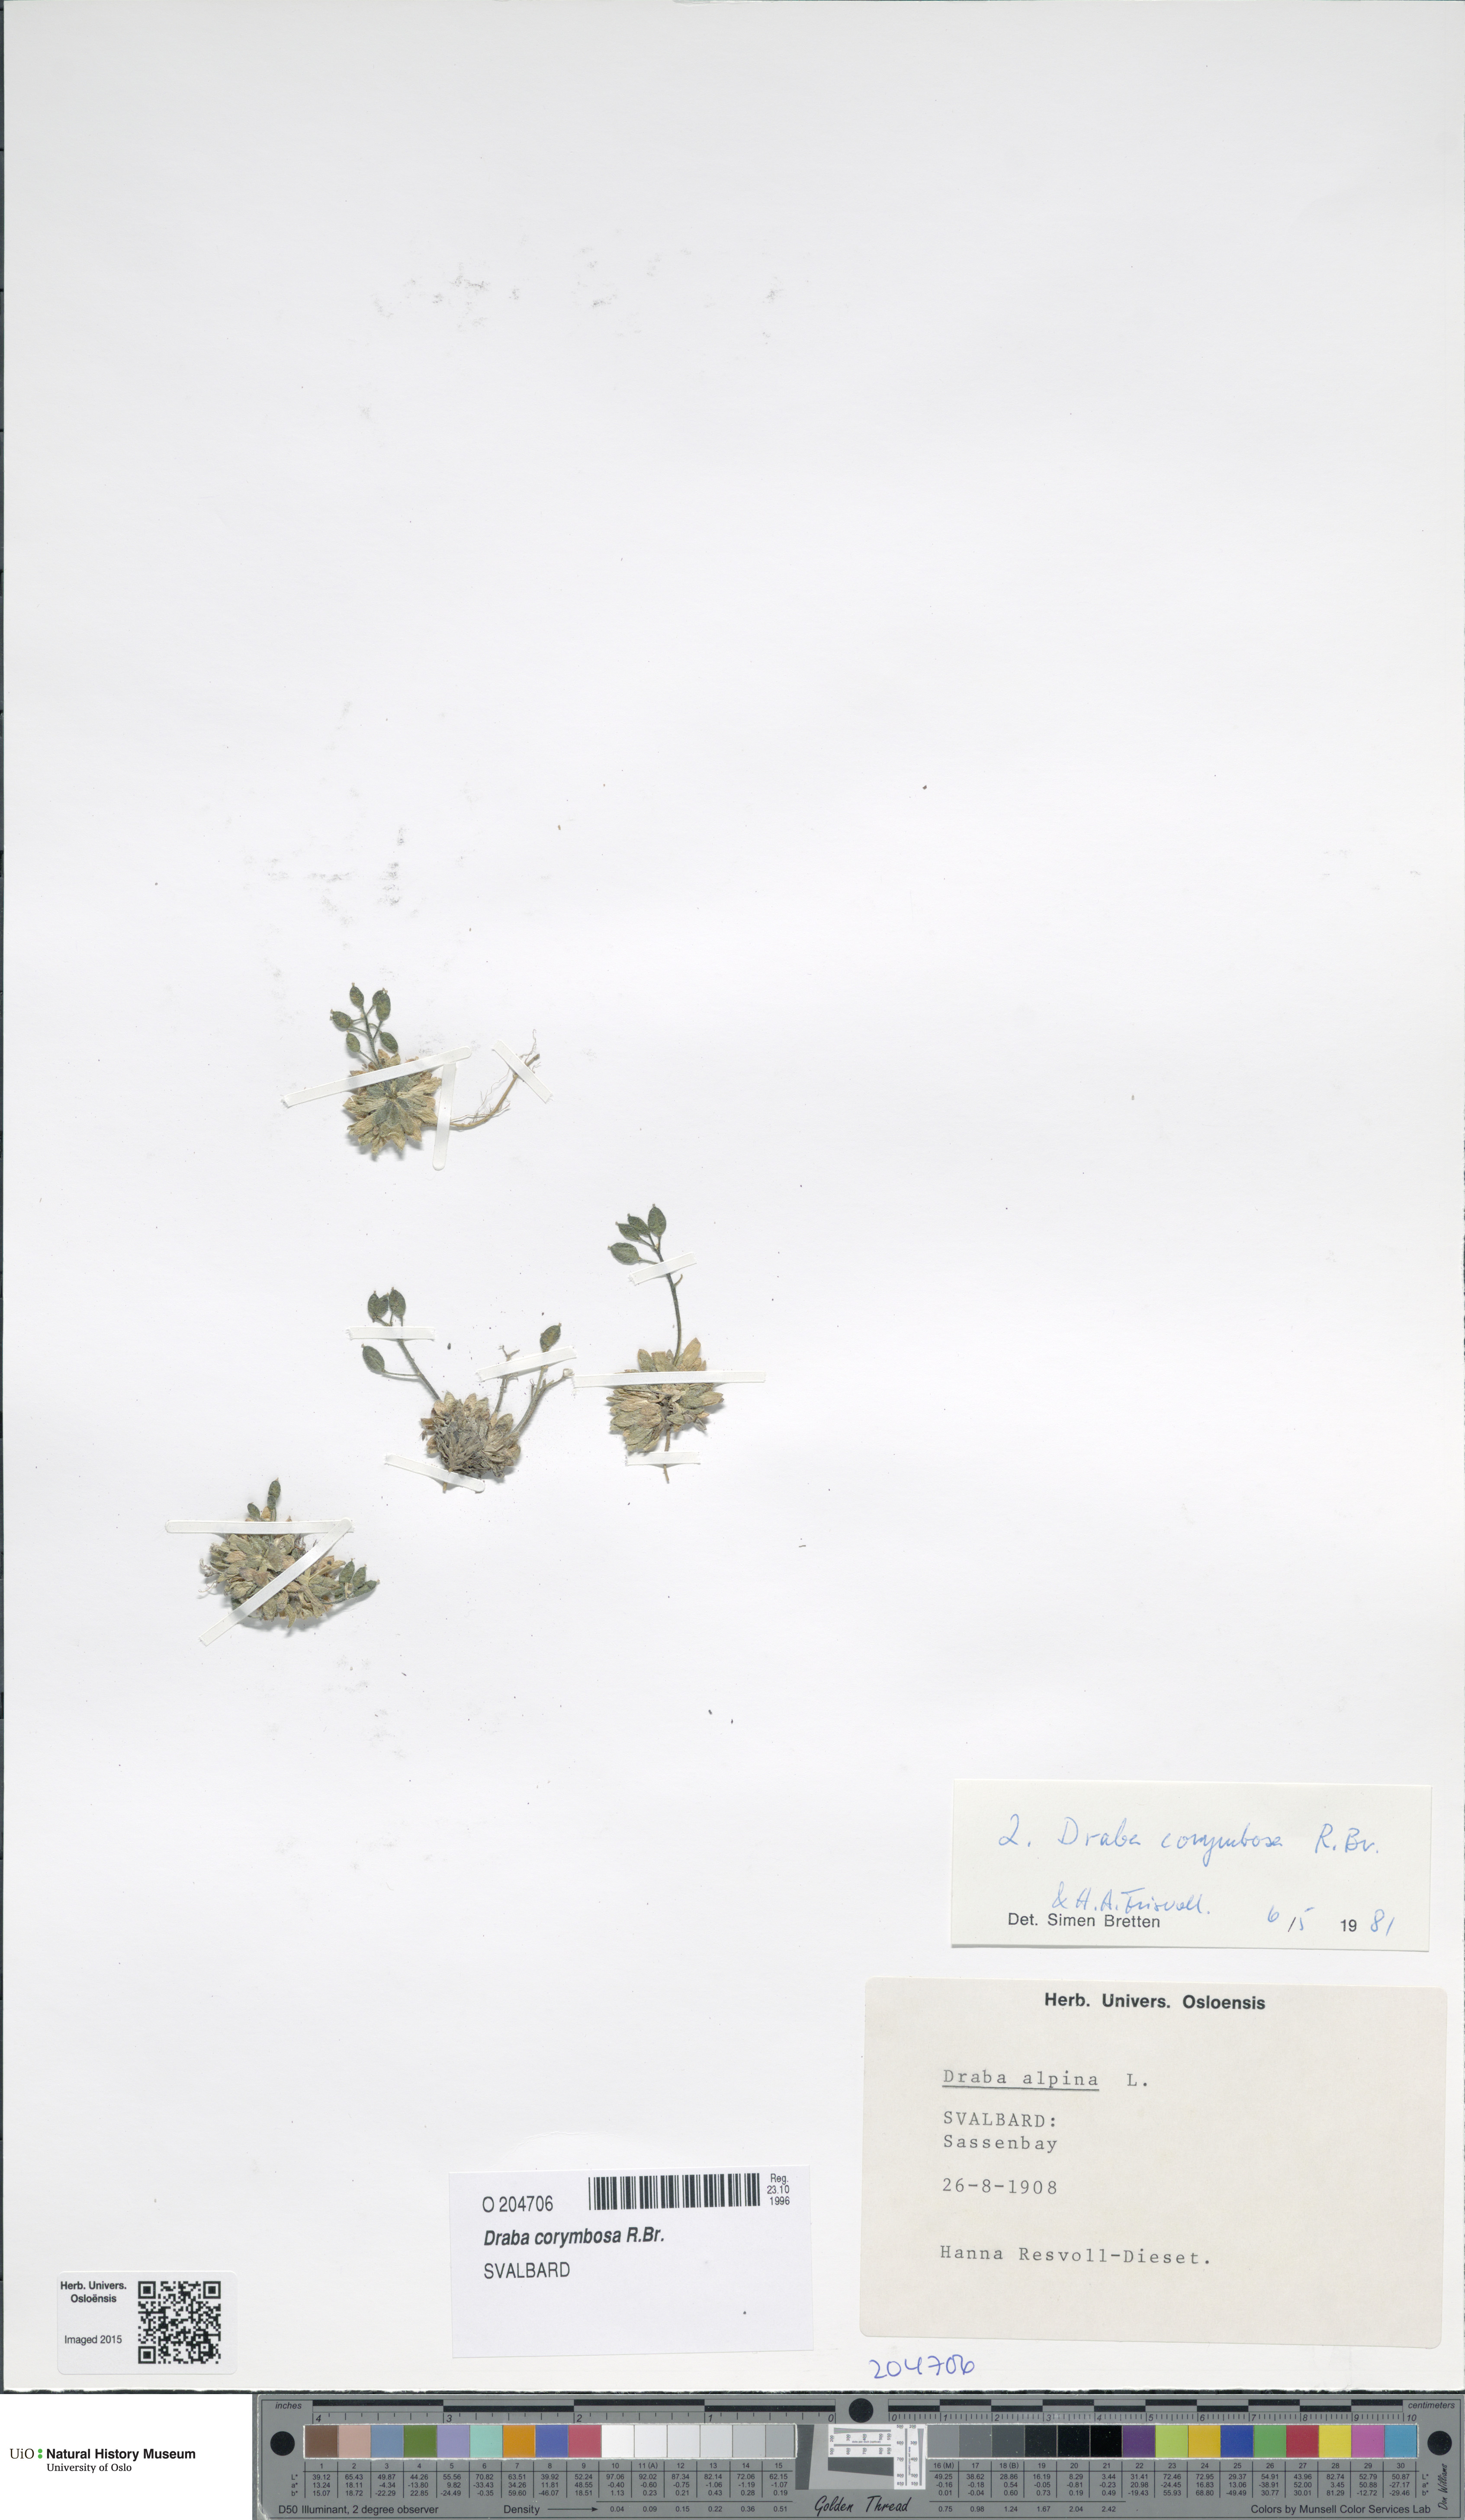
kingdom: Plantae
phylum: Tracheophyta
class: Magnoliopsida
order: Brassicales
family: Brassicaceae
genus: Draba
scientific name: Draba corymbosa
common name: Cushion whitlow-grass
